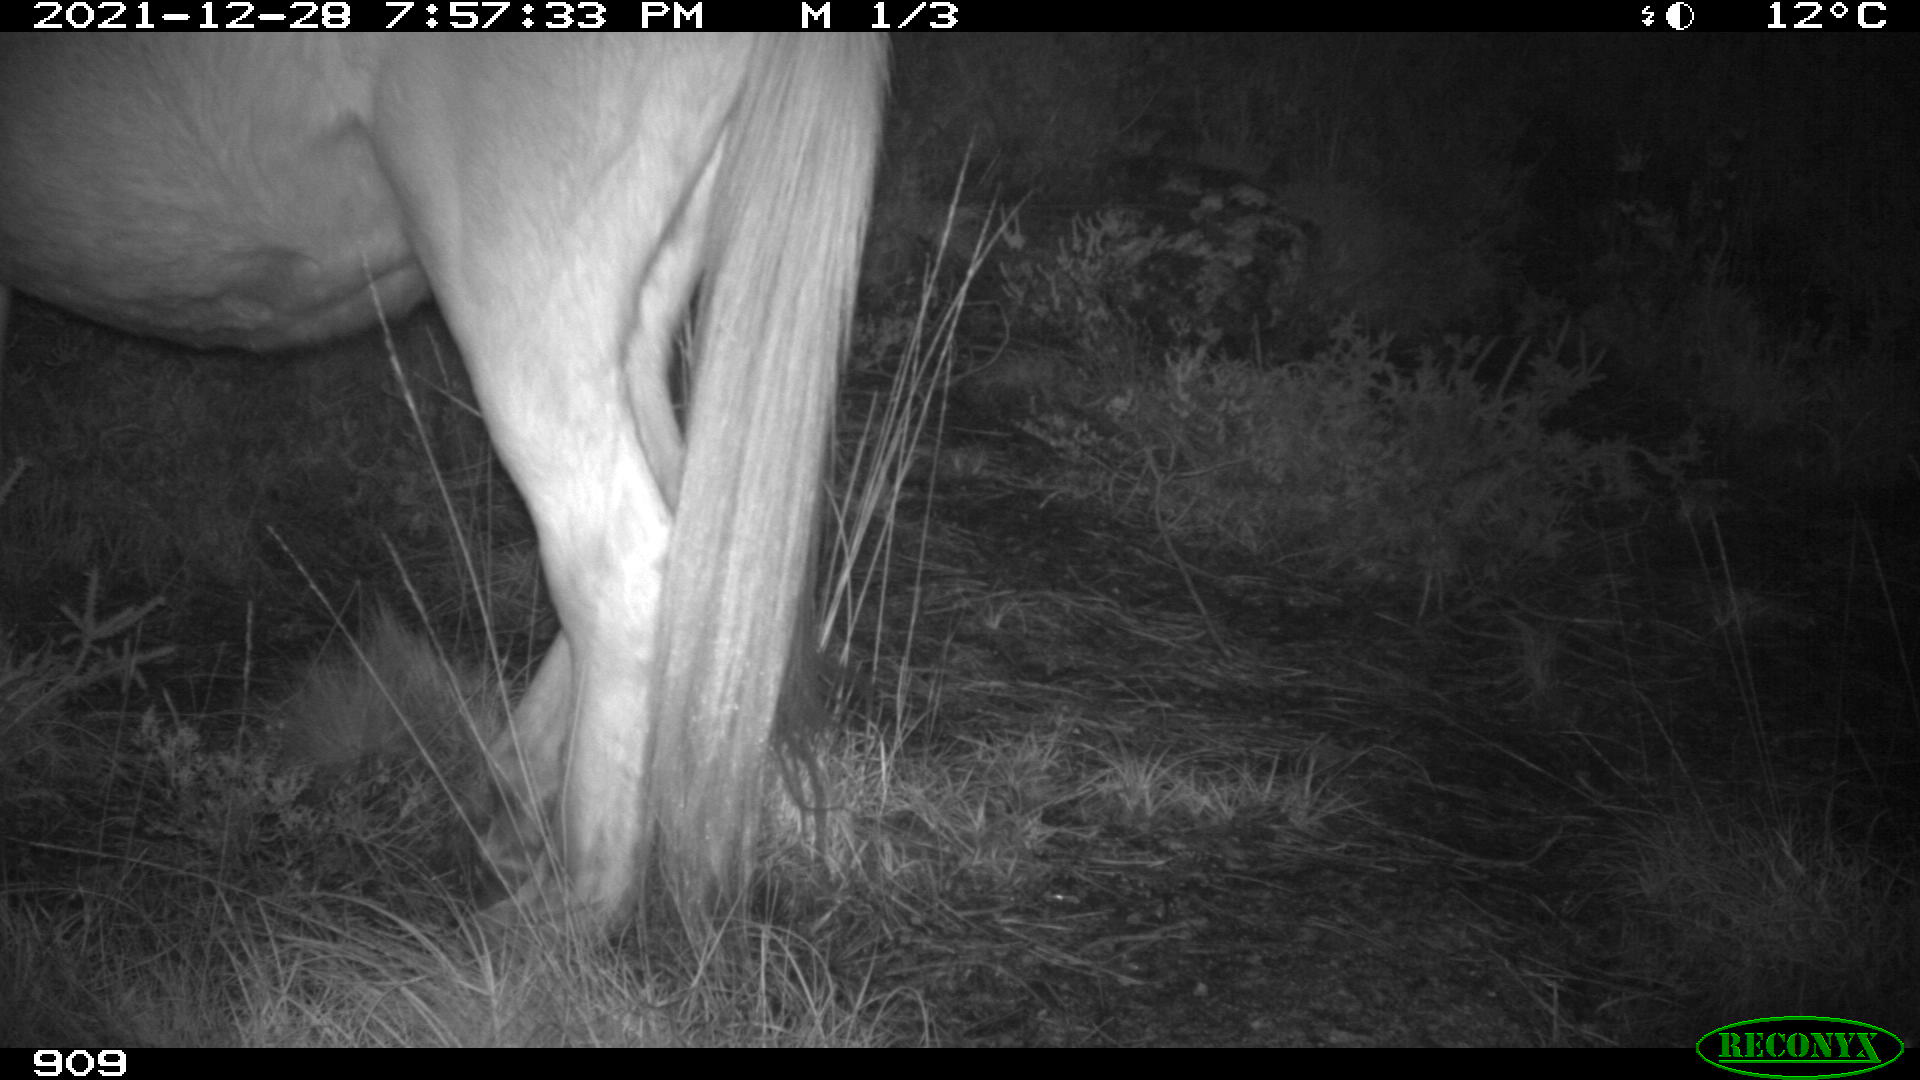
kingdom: Animalia
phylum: Chordata
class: Mammalia
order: Perissodactyla
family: Equidae
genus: Equus
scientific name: Equus caballus
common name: Horse
